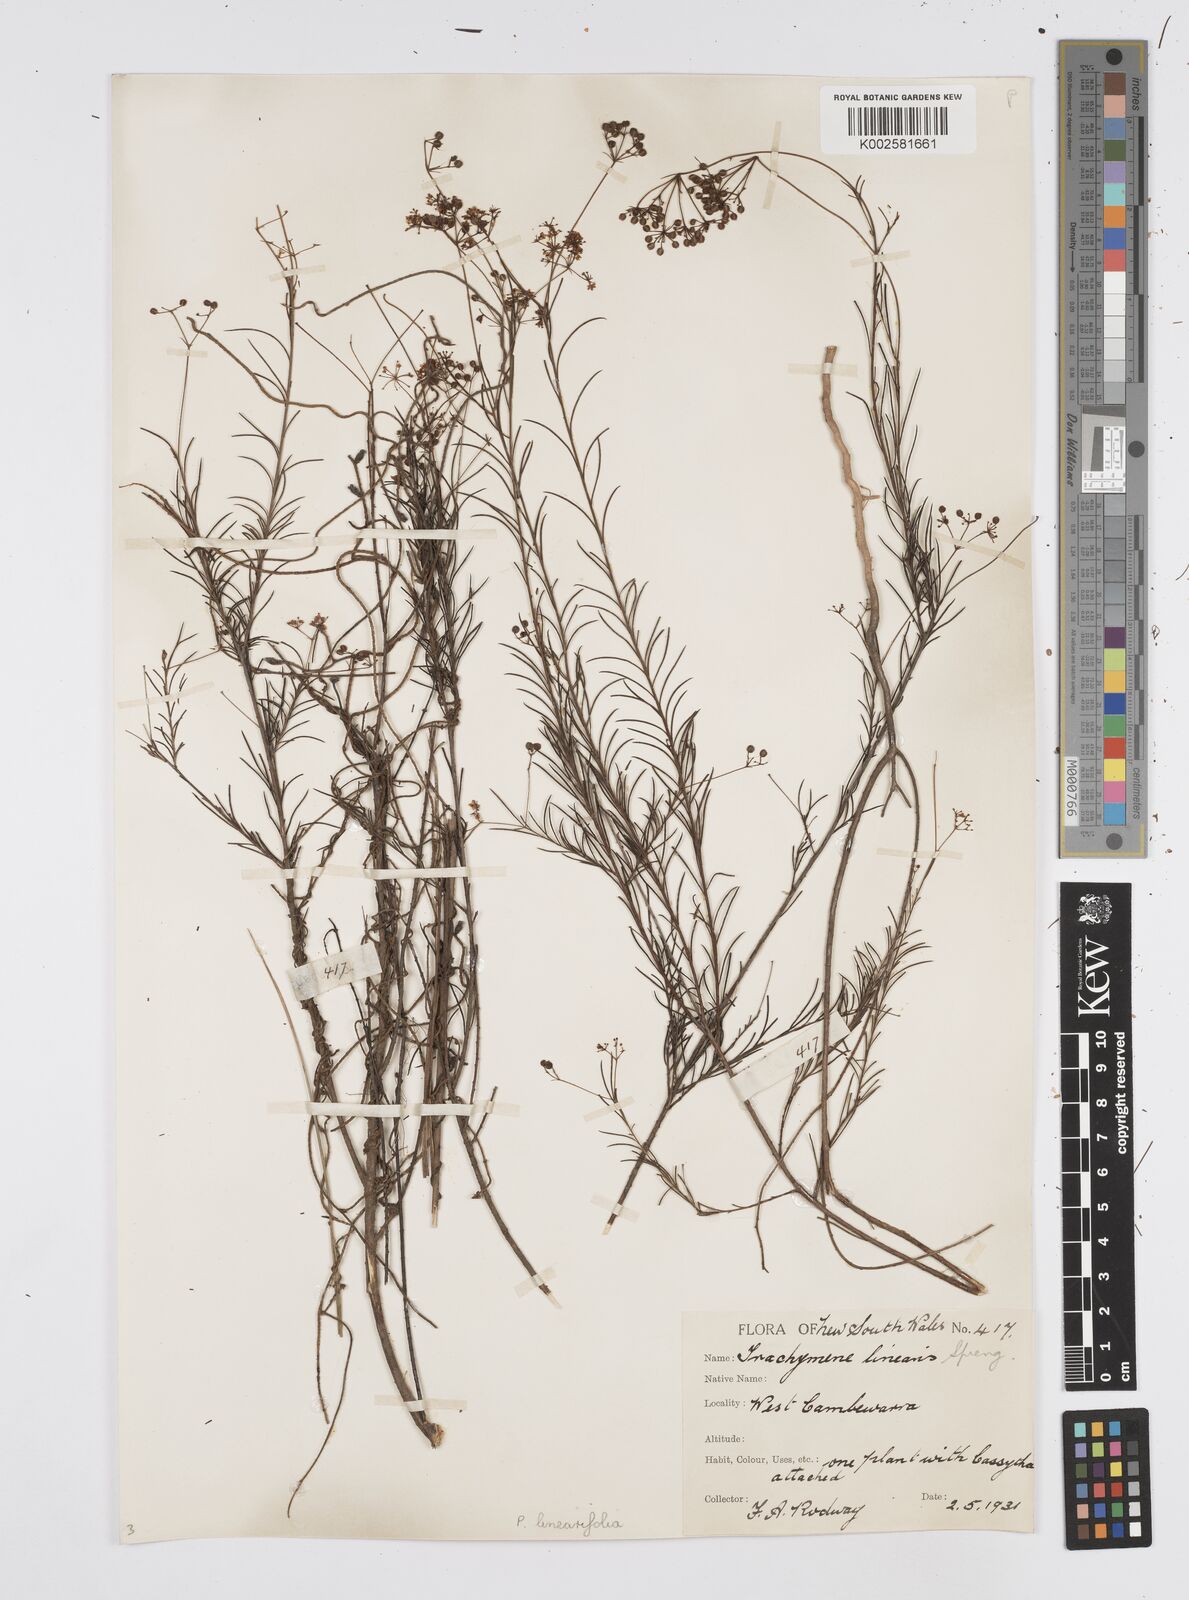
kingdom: Plantae
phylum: Tracheophyta
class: Magnoliopsida
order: Apiales
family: Apiaceae
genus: Platysace
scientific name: Platysace linearifolia
